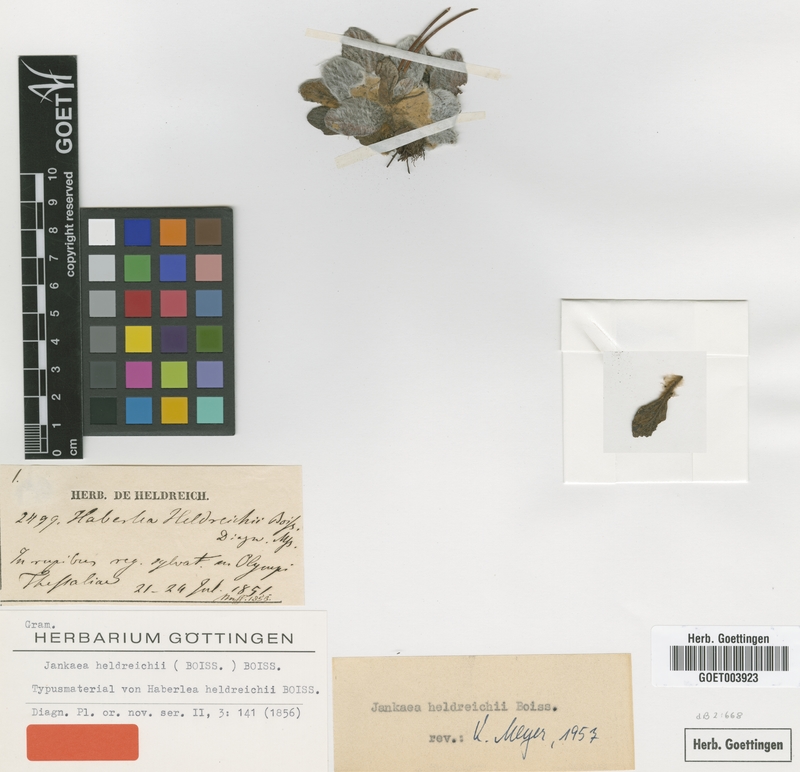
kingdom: Plantae
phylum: Tracheophyta
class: Magnoliopsida
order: Lamiales
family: Gesneriaceae
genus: Ramonda
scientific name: Ramonda heldreichii
